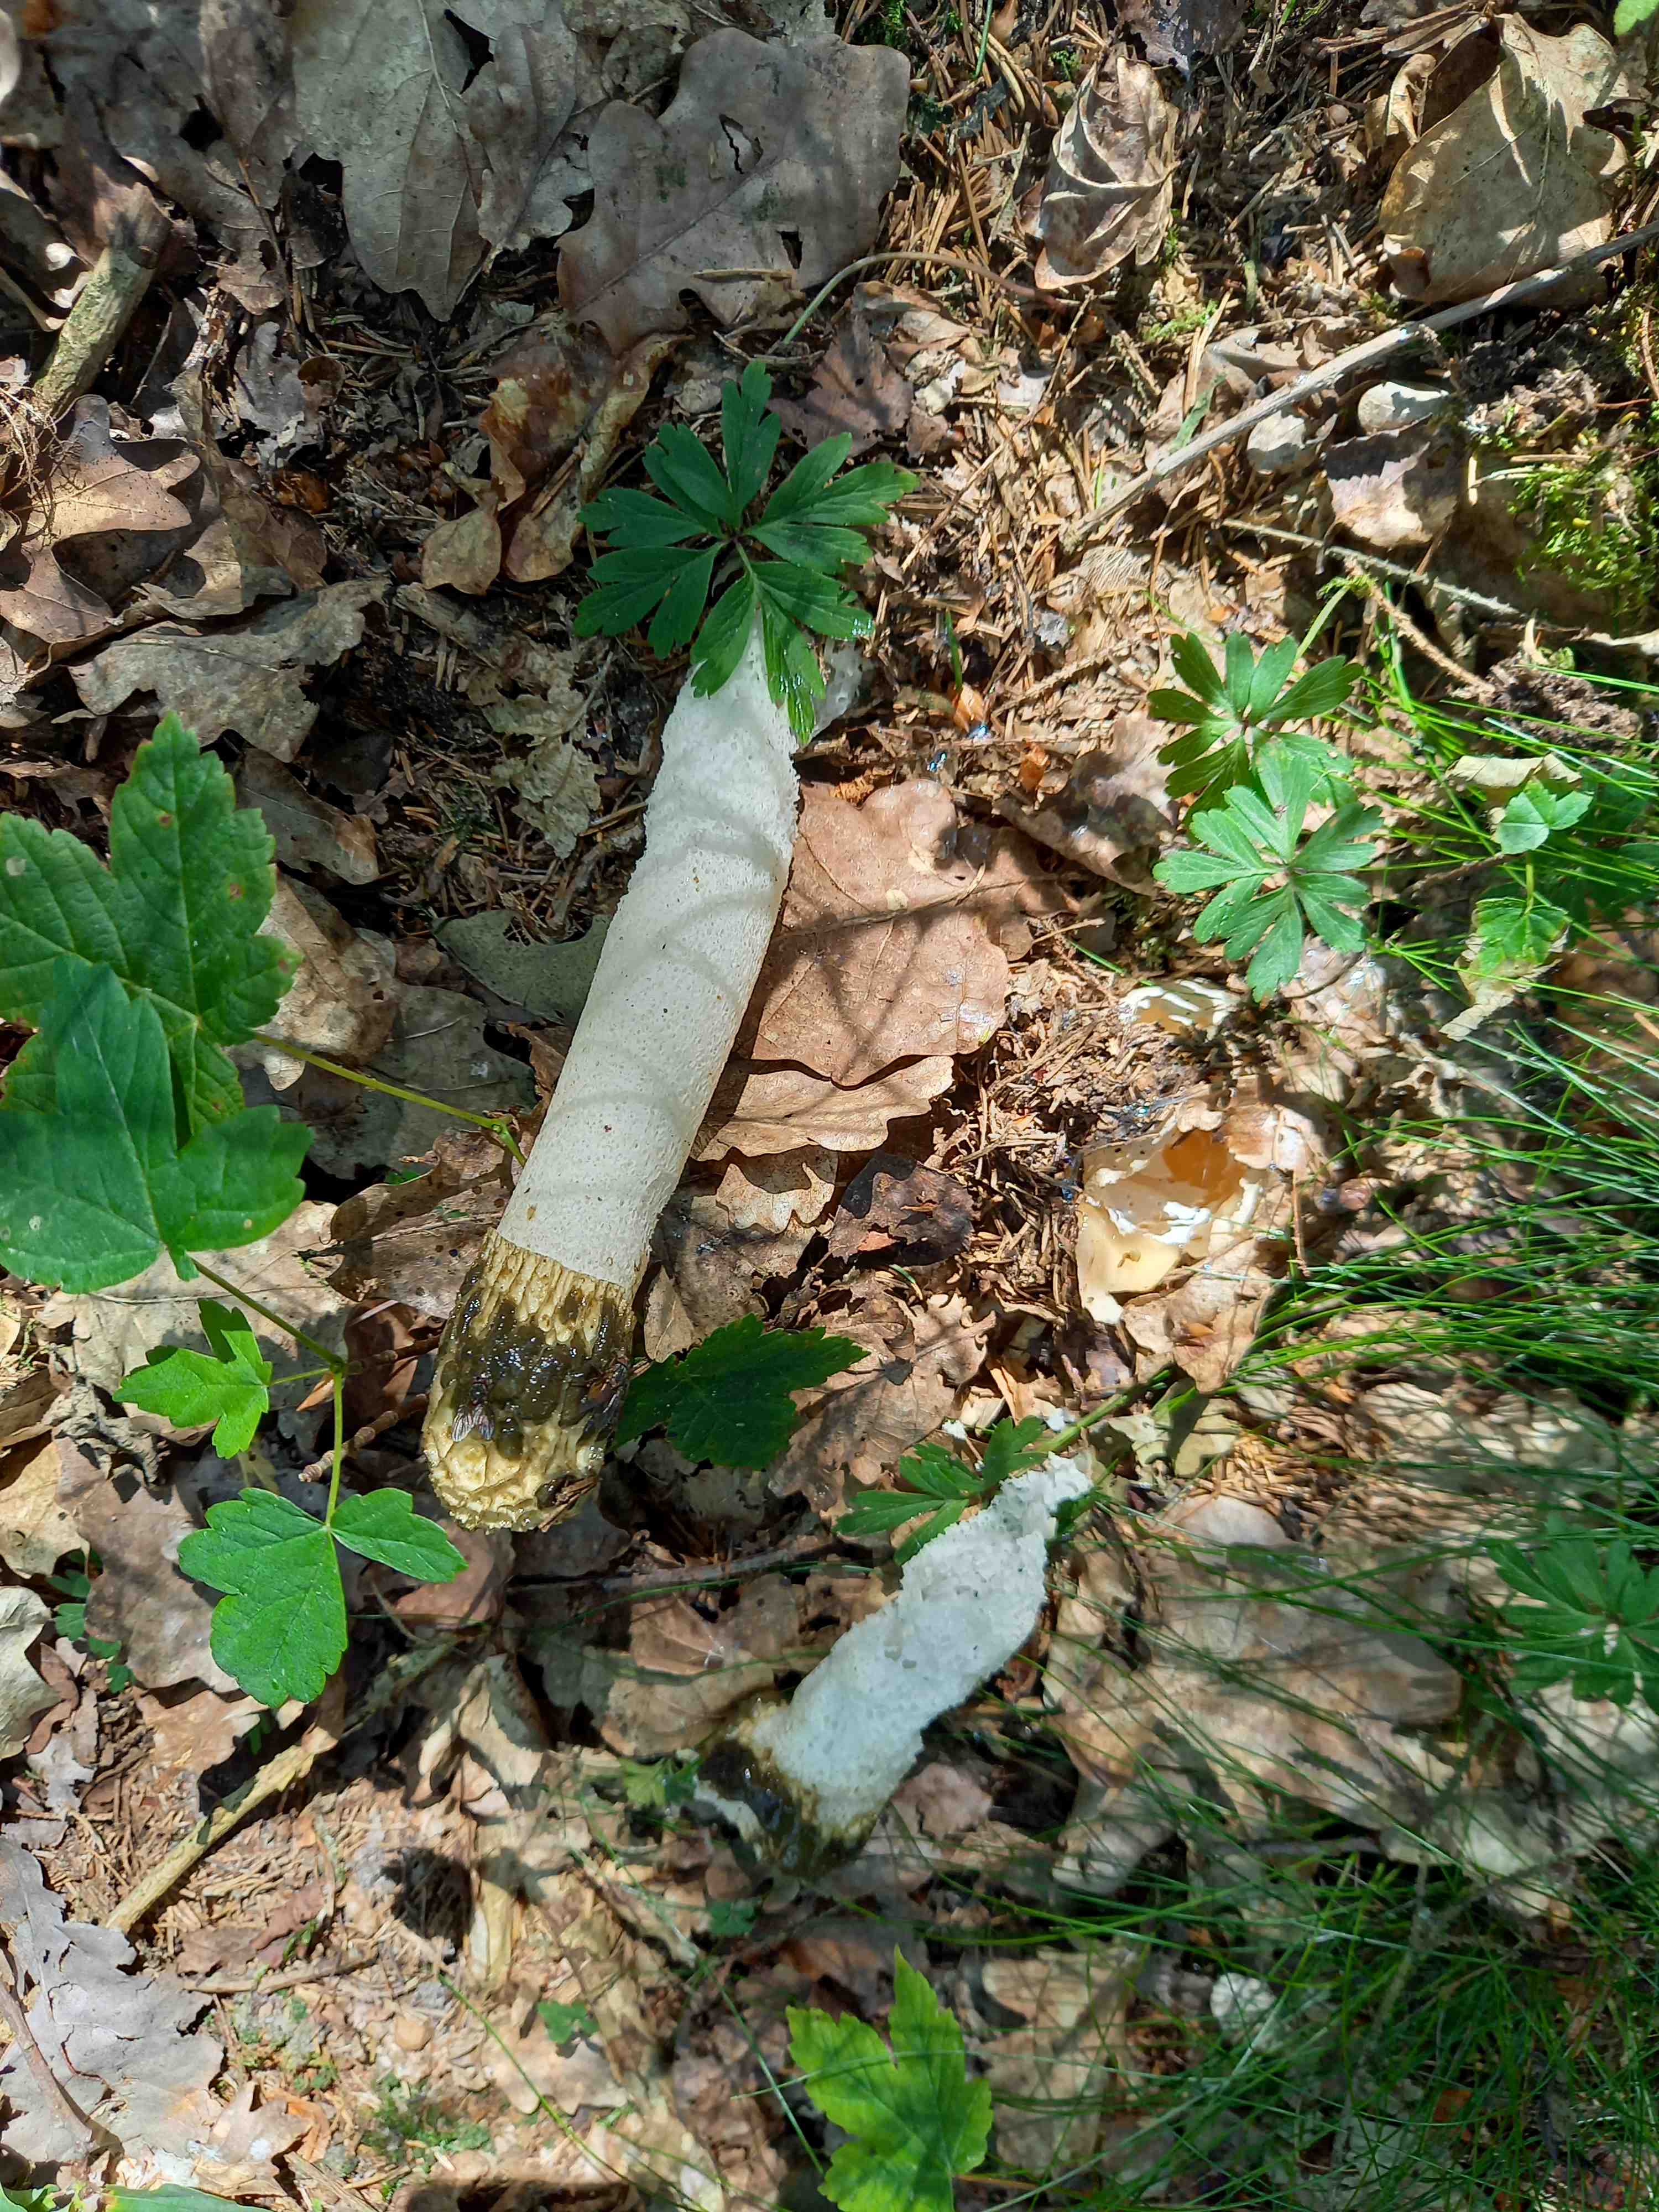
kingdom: Fungi
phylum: Basidiomycota
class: Agaricomycetes
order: Phallales
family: Phallaceae
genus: Phallus
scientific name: Phallus impudicus
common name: almindelig stinksvamp
